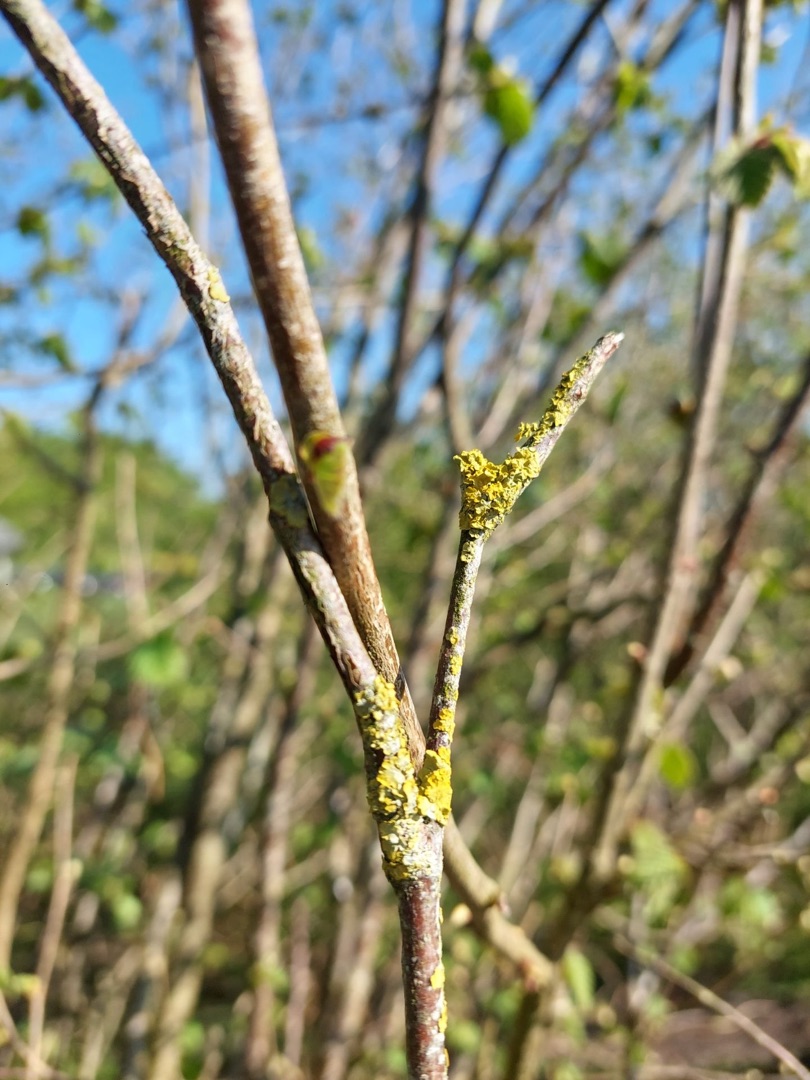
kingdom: Fungi
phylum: Ascomycota
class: Lecanoromycetes
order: Teloschistales
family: Teloschistaceae
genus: Xanthoria
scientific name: Xanthoria parietina
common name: Almindelig væggelav
